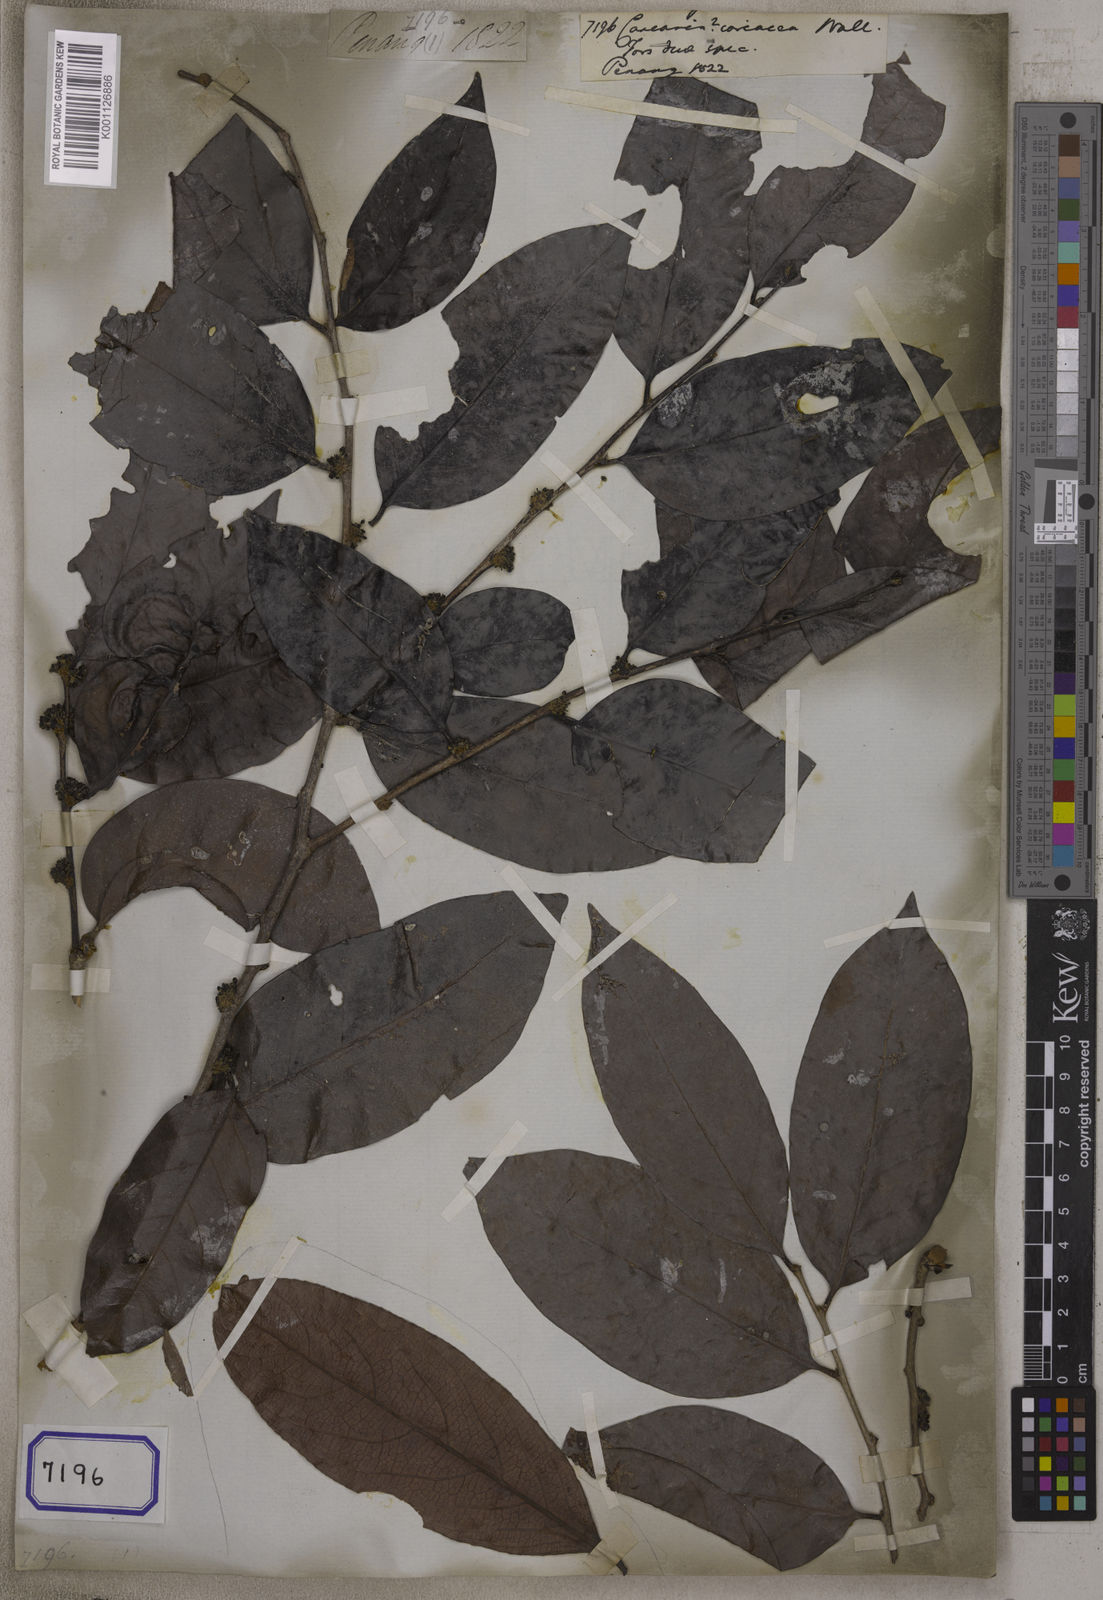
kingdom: Plantae
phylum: Tracheophyta
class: Magnoliopsida
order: Malpighiales
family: Salicaceae
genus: Casearia
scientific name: Casearia
